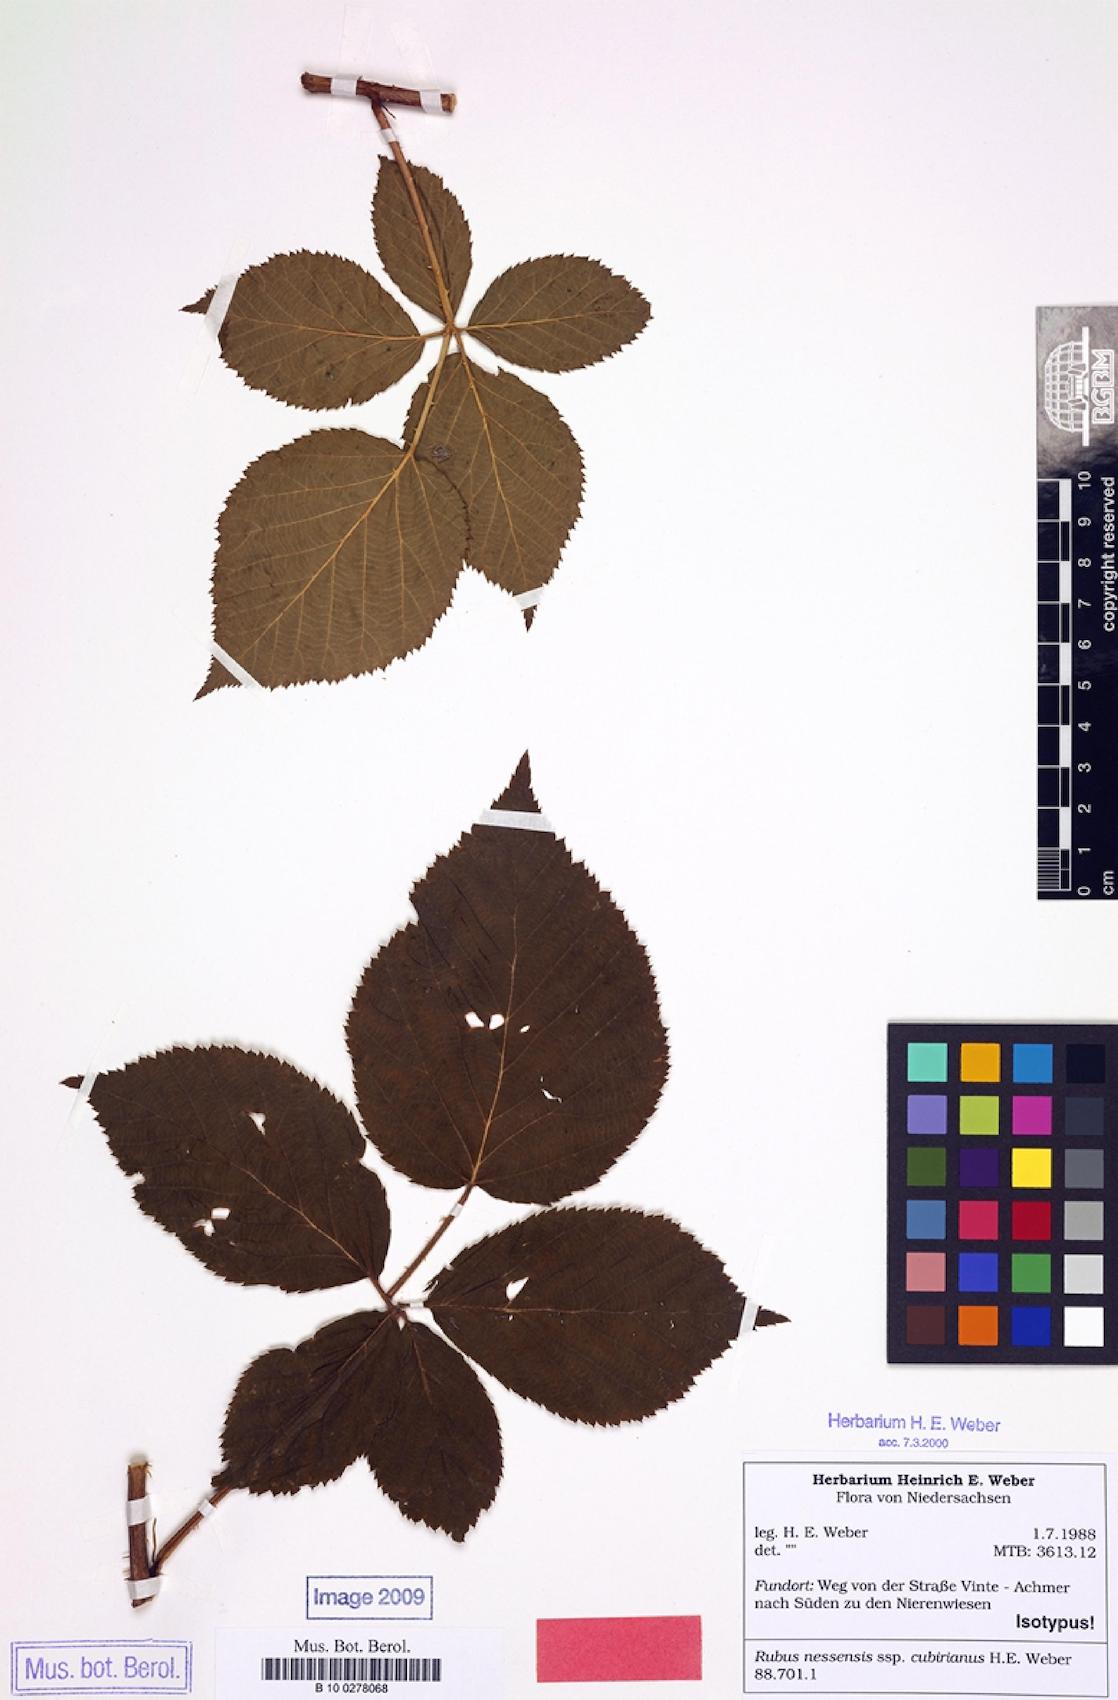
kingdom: Plantae
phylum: Tracheophyta
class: Magnoliopsida
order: Rosales
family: Rosaceae
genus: Rubus
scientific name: Rubus cubirianus
